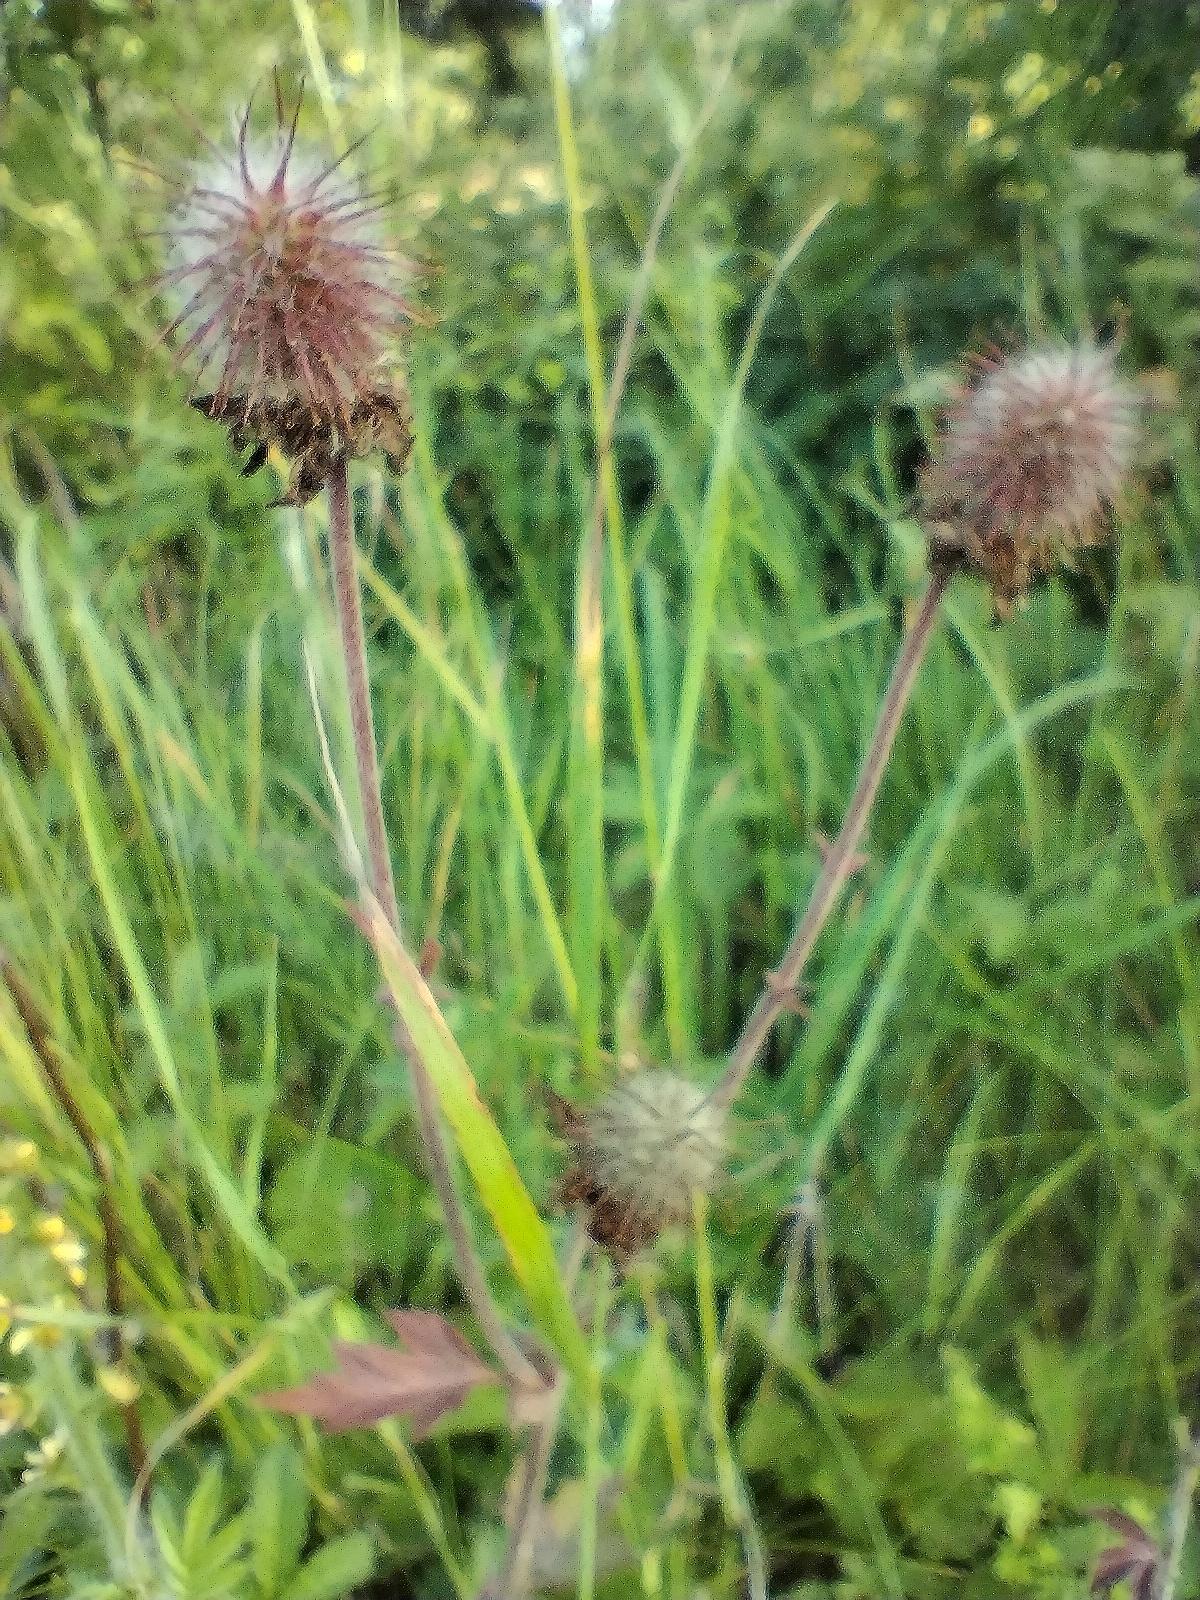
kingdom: Plantae
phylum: Tracheophyta
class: Magnoliopsida
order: Rosales
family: Rosaceae
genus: Geum
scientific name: Geum rivale
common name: Eng-nellikerod
